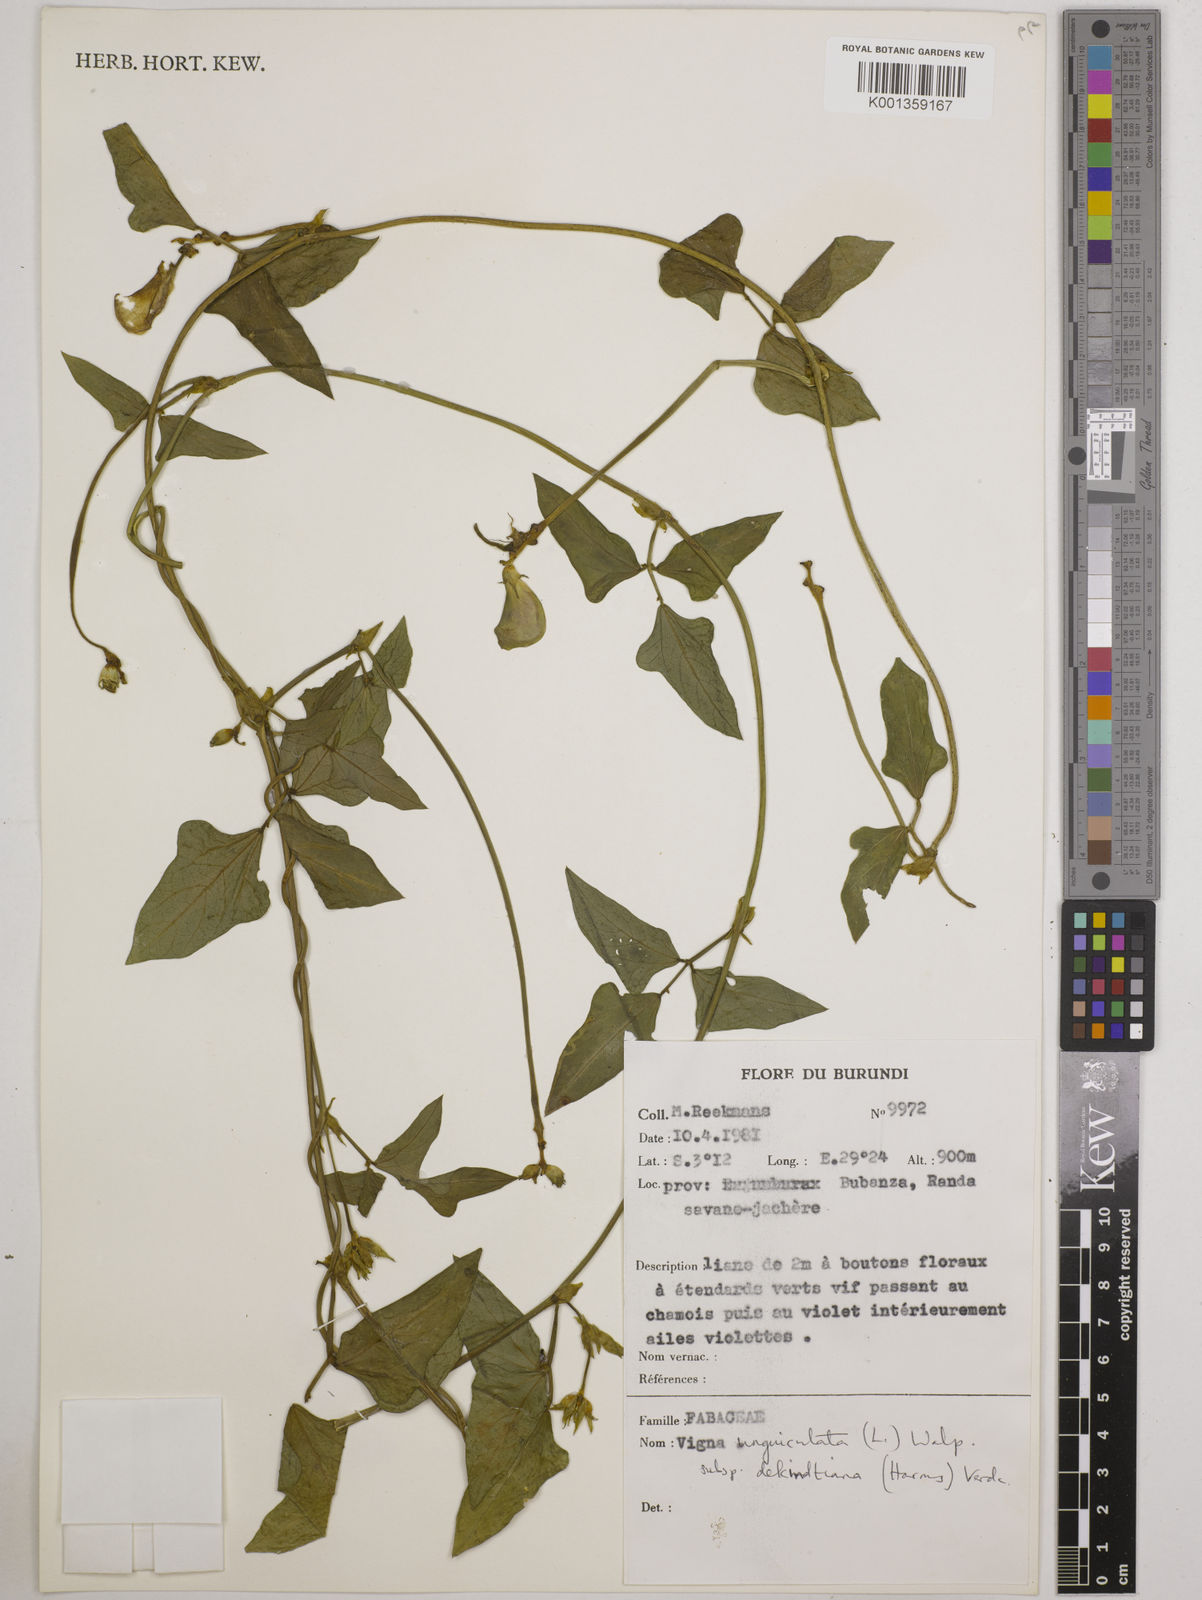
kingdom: Plantae
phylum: Tracheophyta
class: Magnoliopsida
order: Fabales
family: Fabaceae
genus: Vigna
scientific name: Vigna
